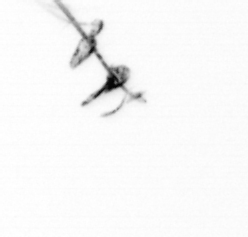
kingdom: Chromista
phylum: Ochrophyta
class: Bacillariophyceae
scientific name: Bacillariophyceae
